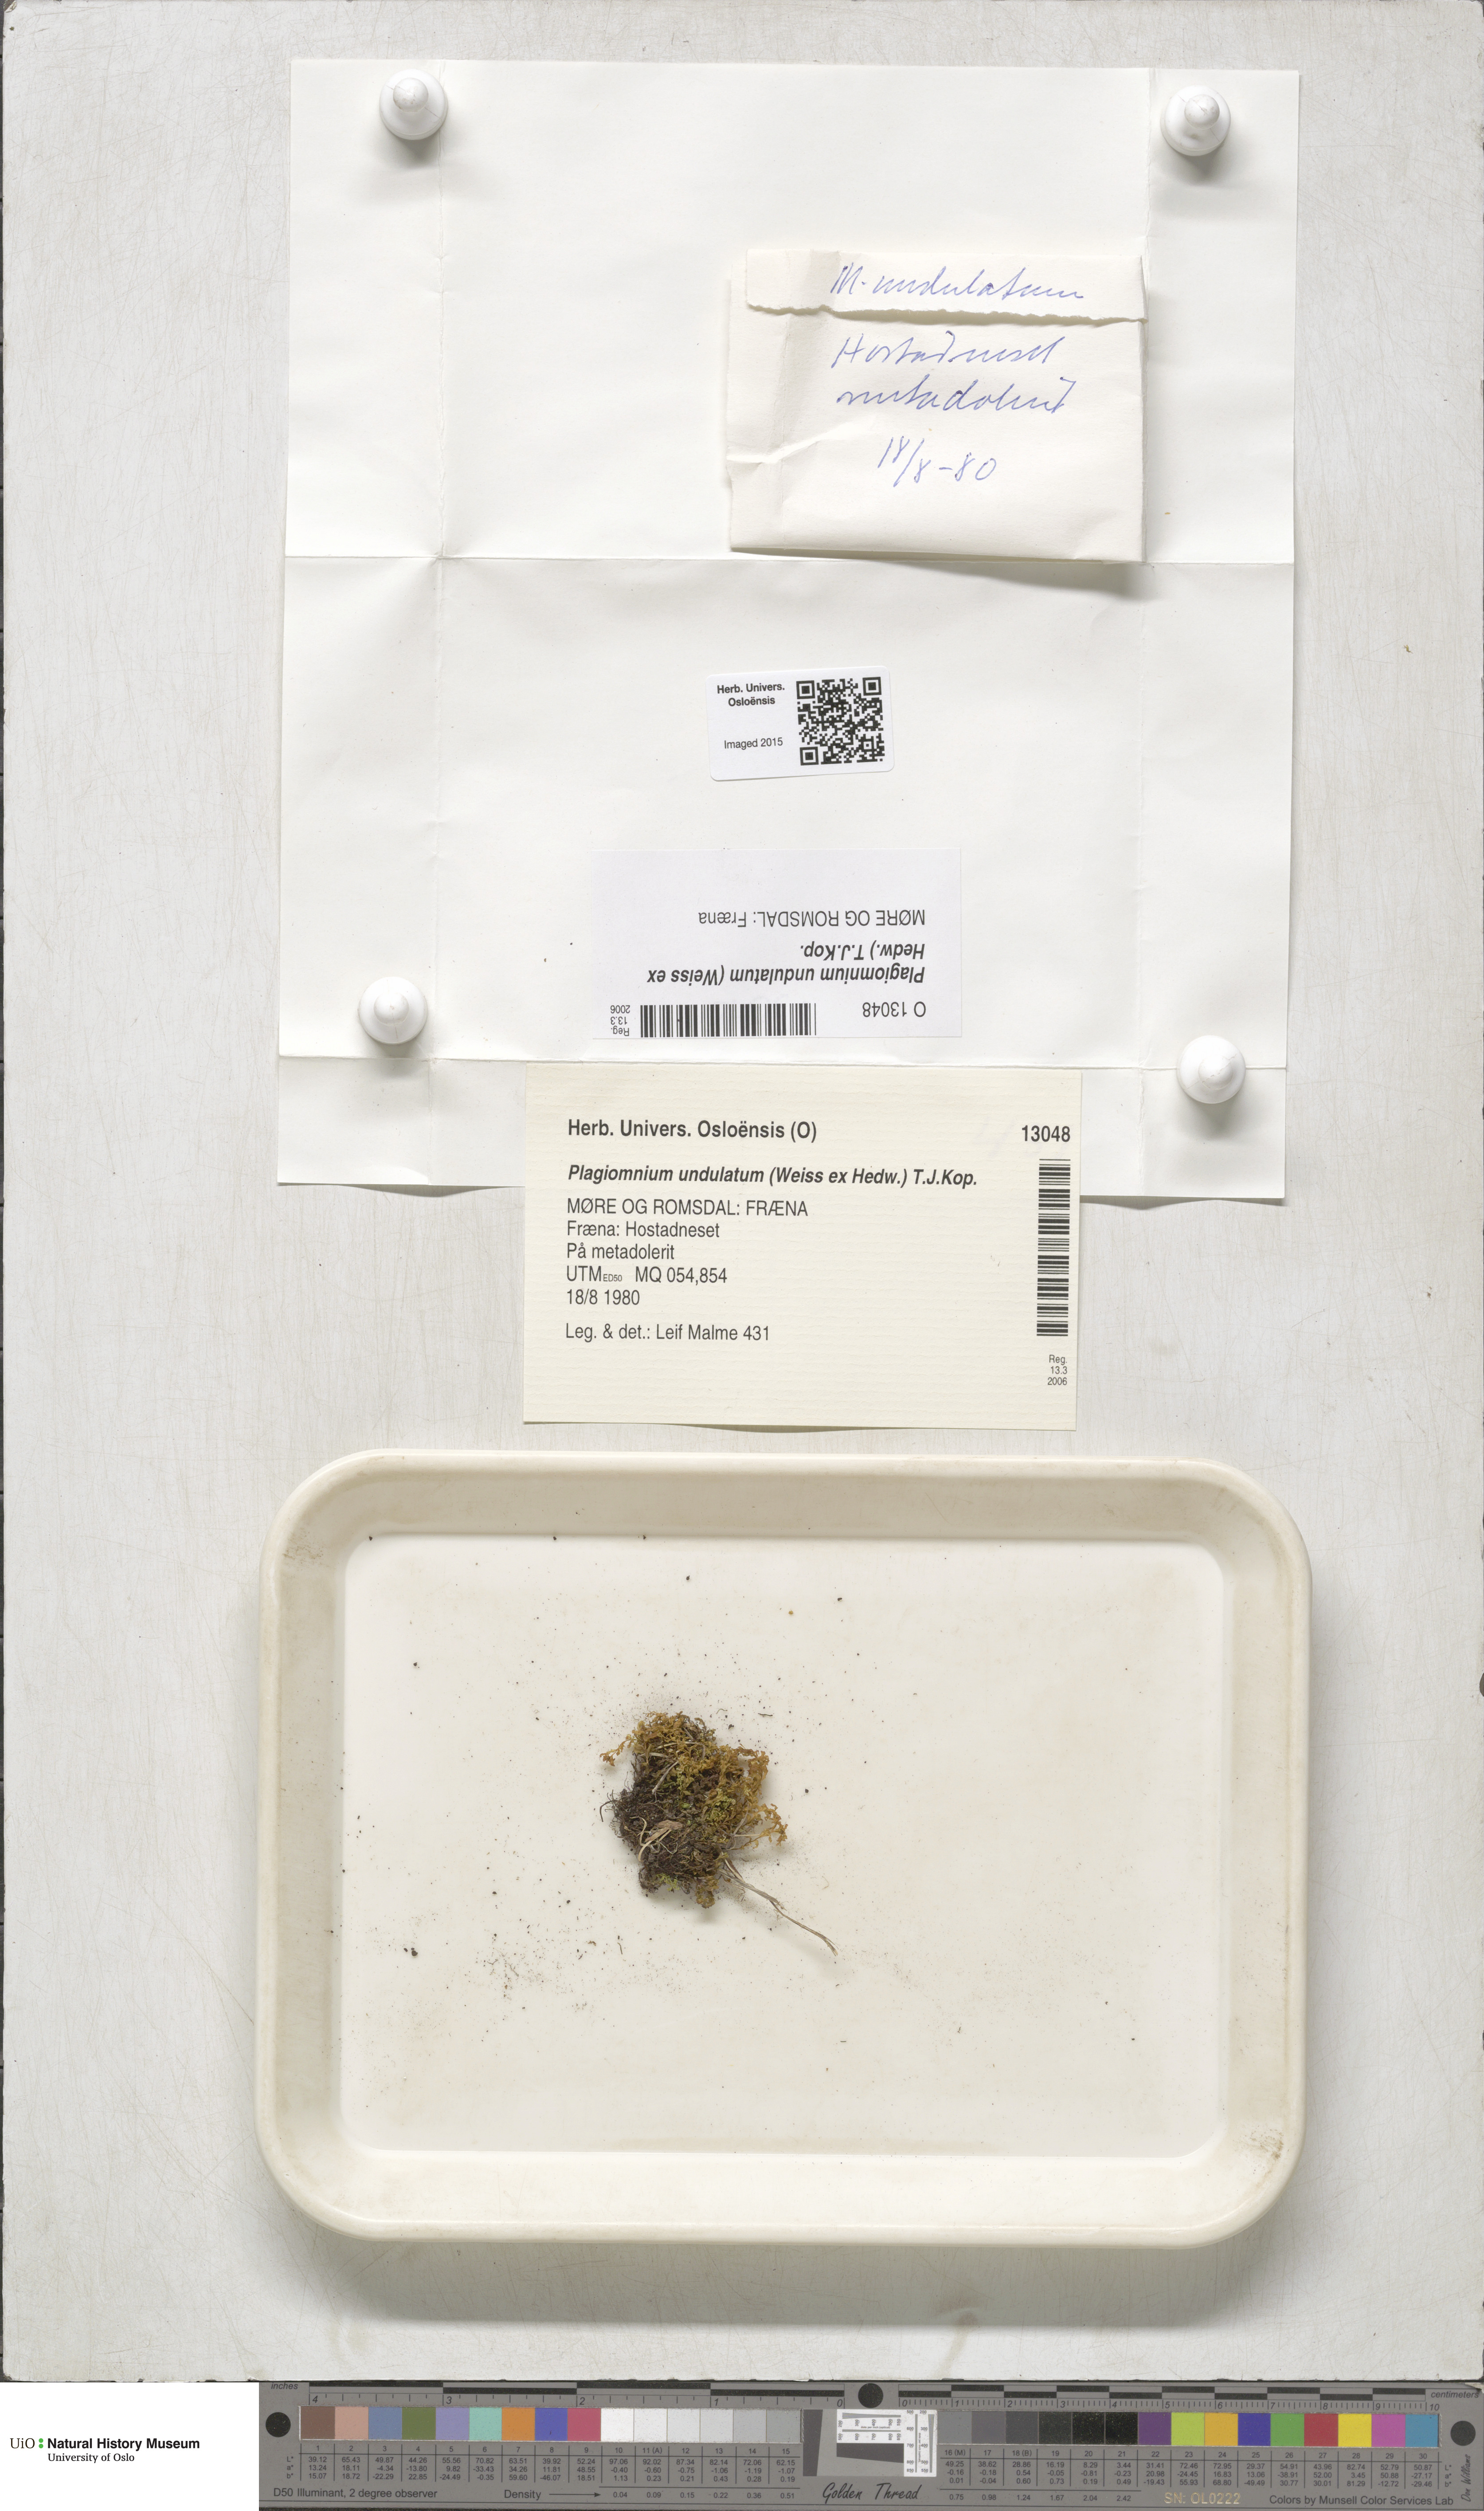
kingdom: Plantae
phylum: Bryophyta
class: Bryopsida
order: Bryales
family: Mniaceae
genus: Plagiomnium
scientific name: Plagiomnium undulatum
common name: Hart's-tongue thyme-moss
